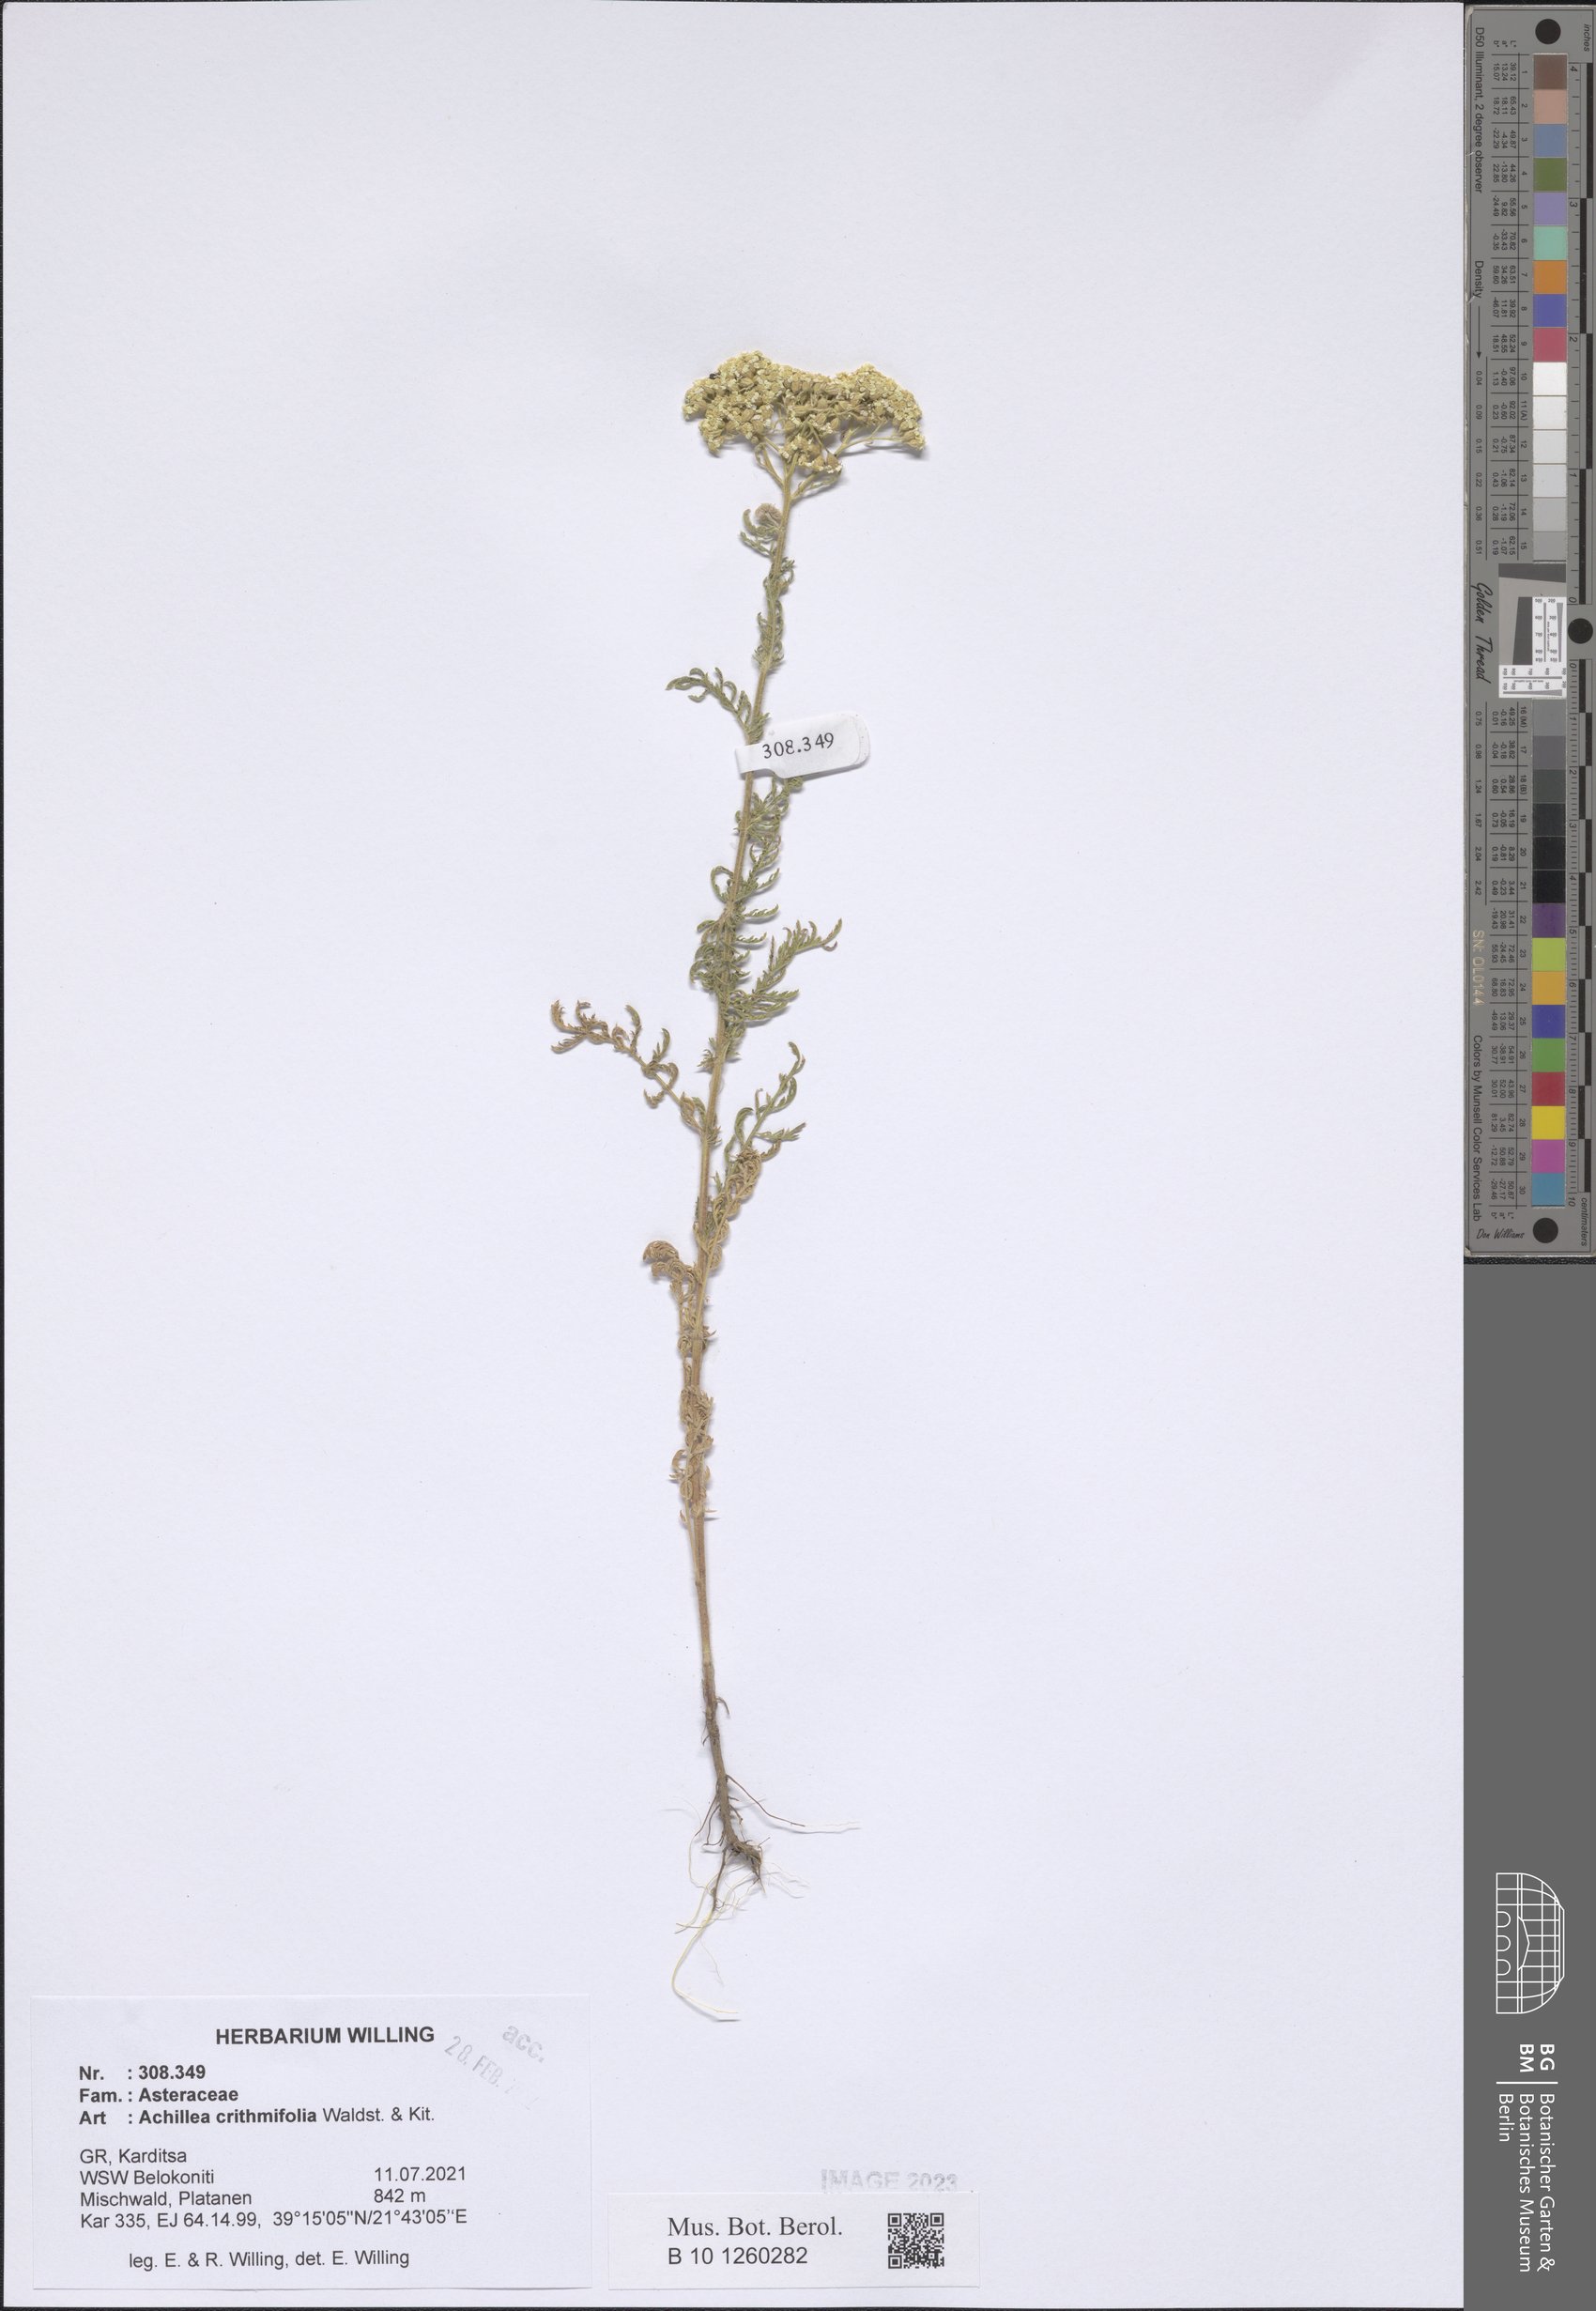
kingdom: Plantae
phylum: Tracheophyta
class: Magnoliopsida
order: Asterales
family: Asteraceae
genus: Achillea
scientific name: Achillea crithmifolia
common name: Yarrow
